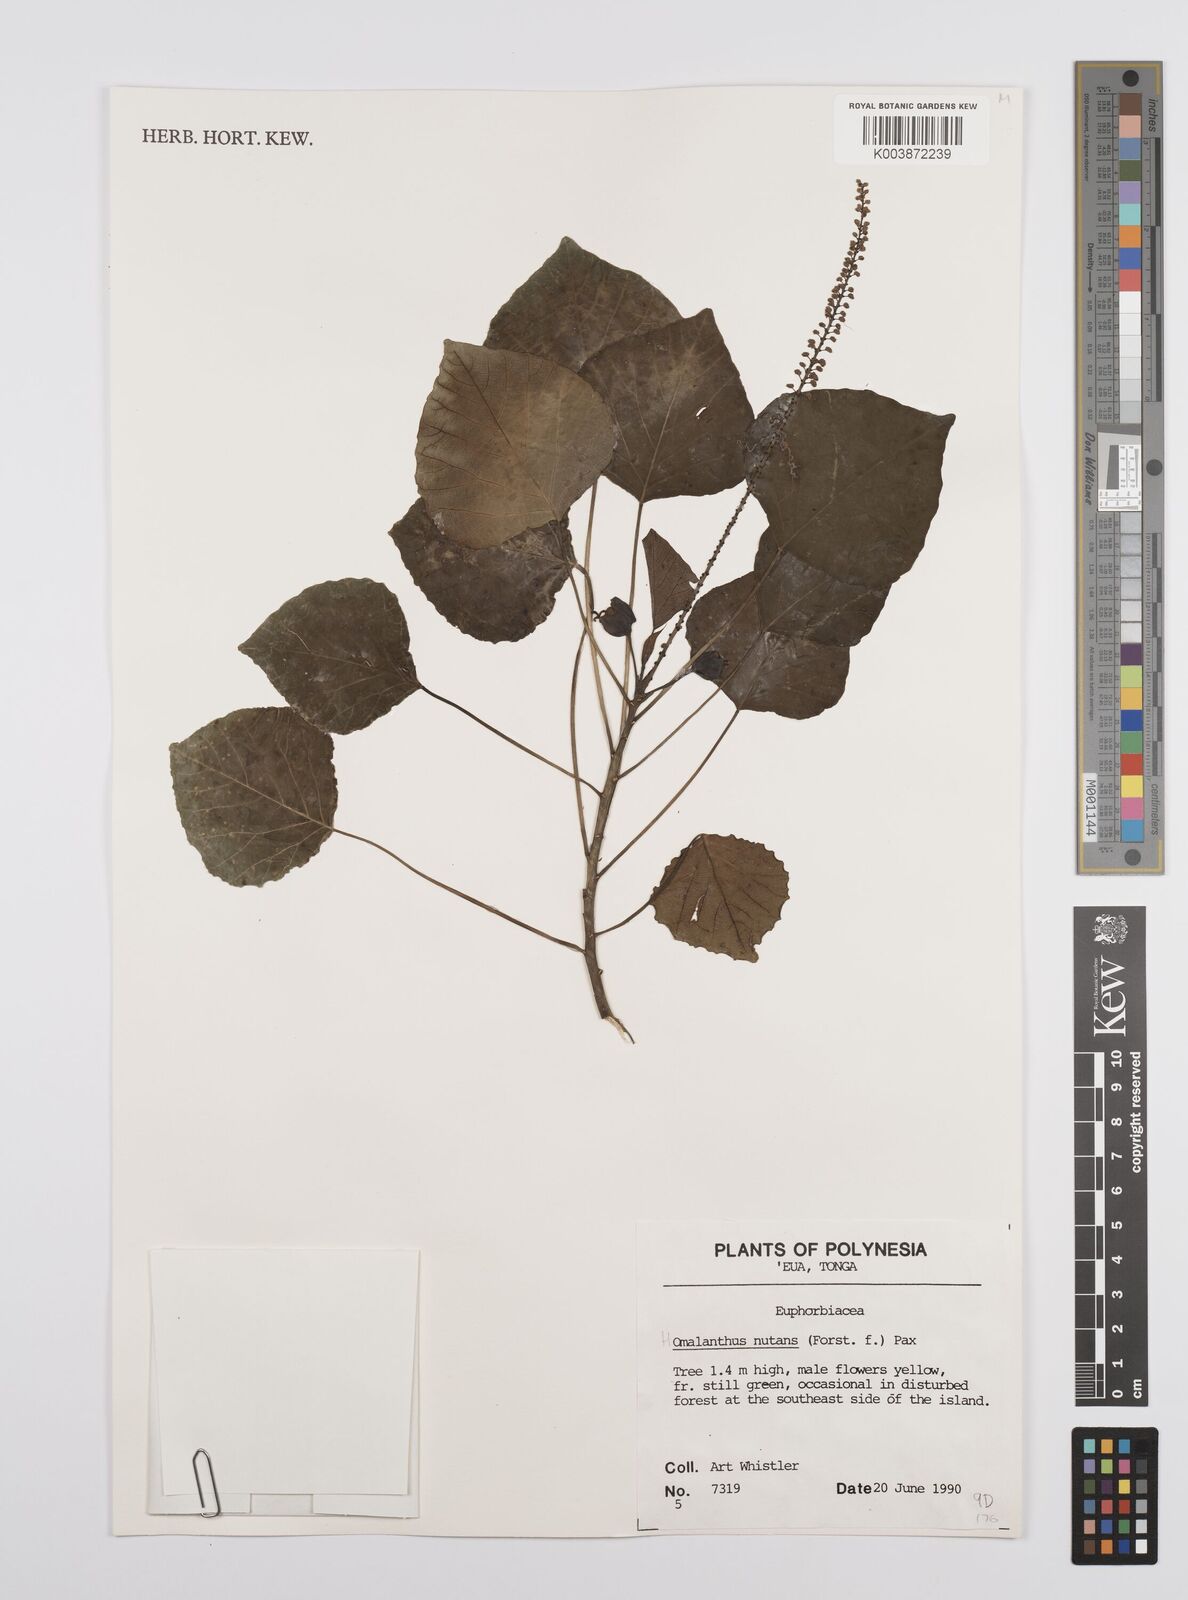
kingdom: Plantae
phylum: Tracheophyta
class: Magnoliopsida
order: Malpighiales
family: Euphorbiaceae
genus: Homalanthus
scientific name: Homalanthus nutans
